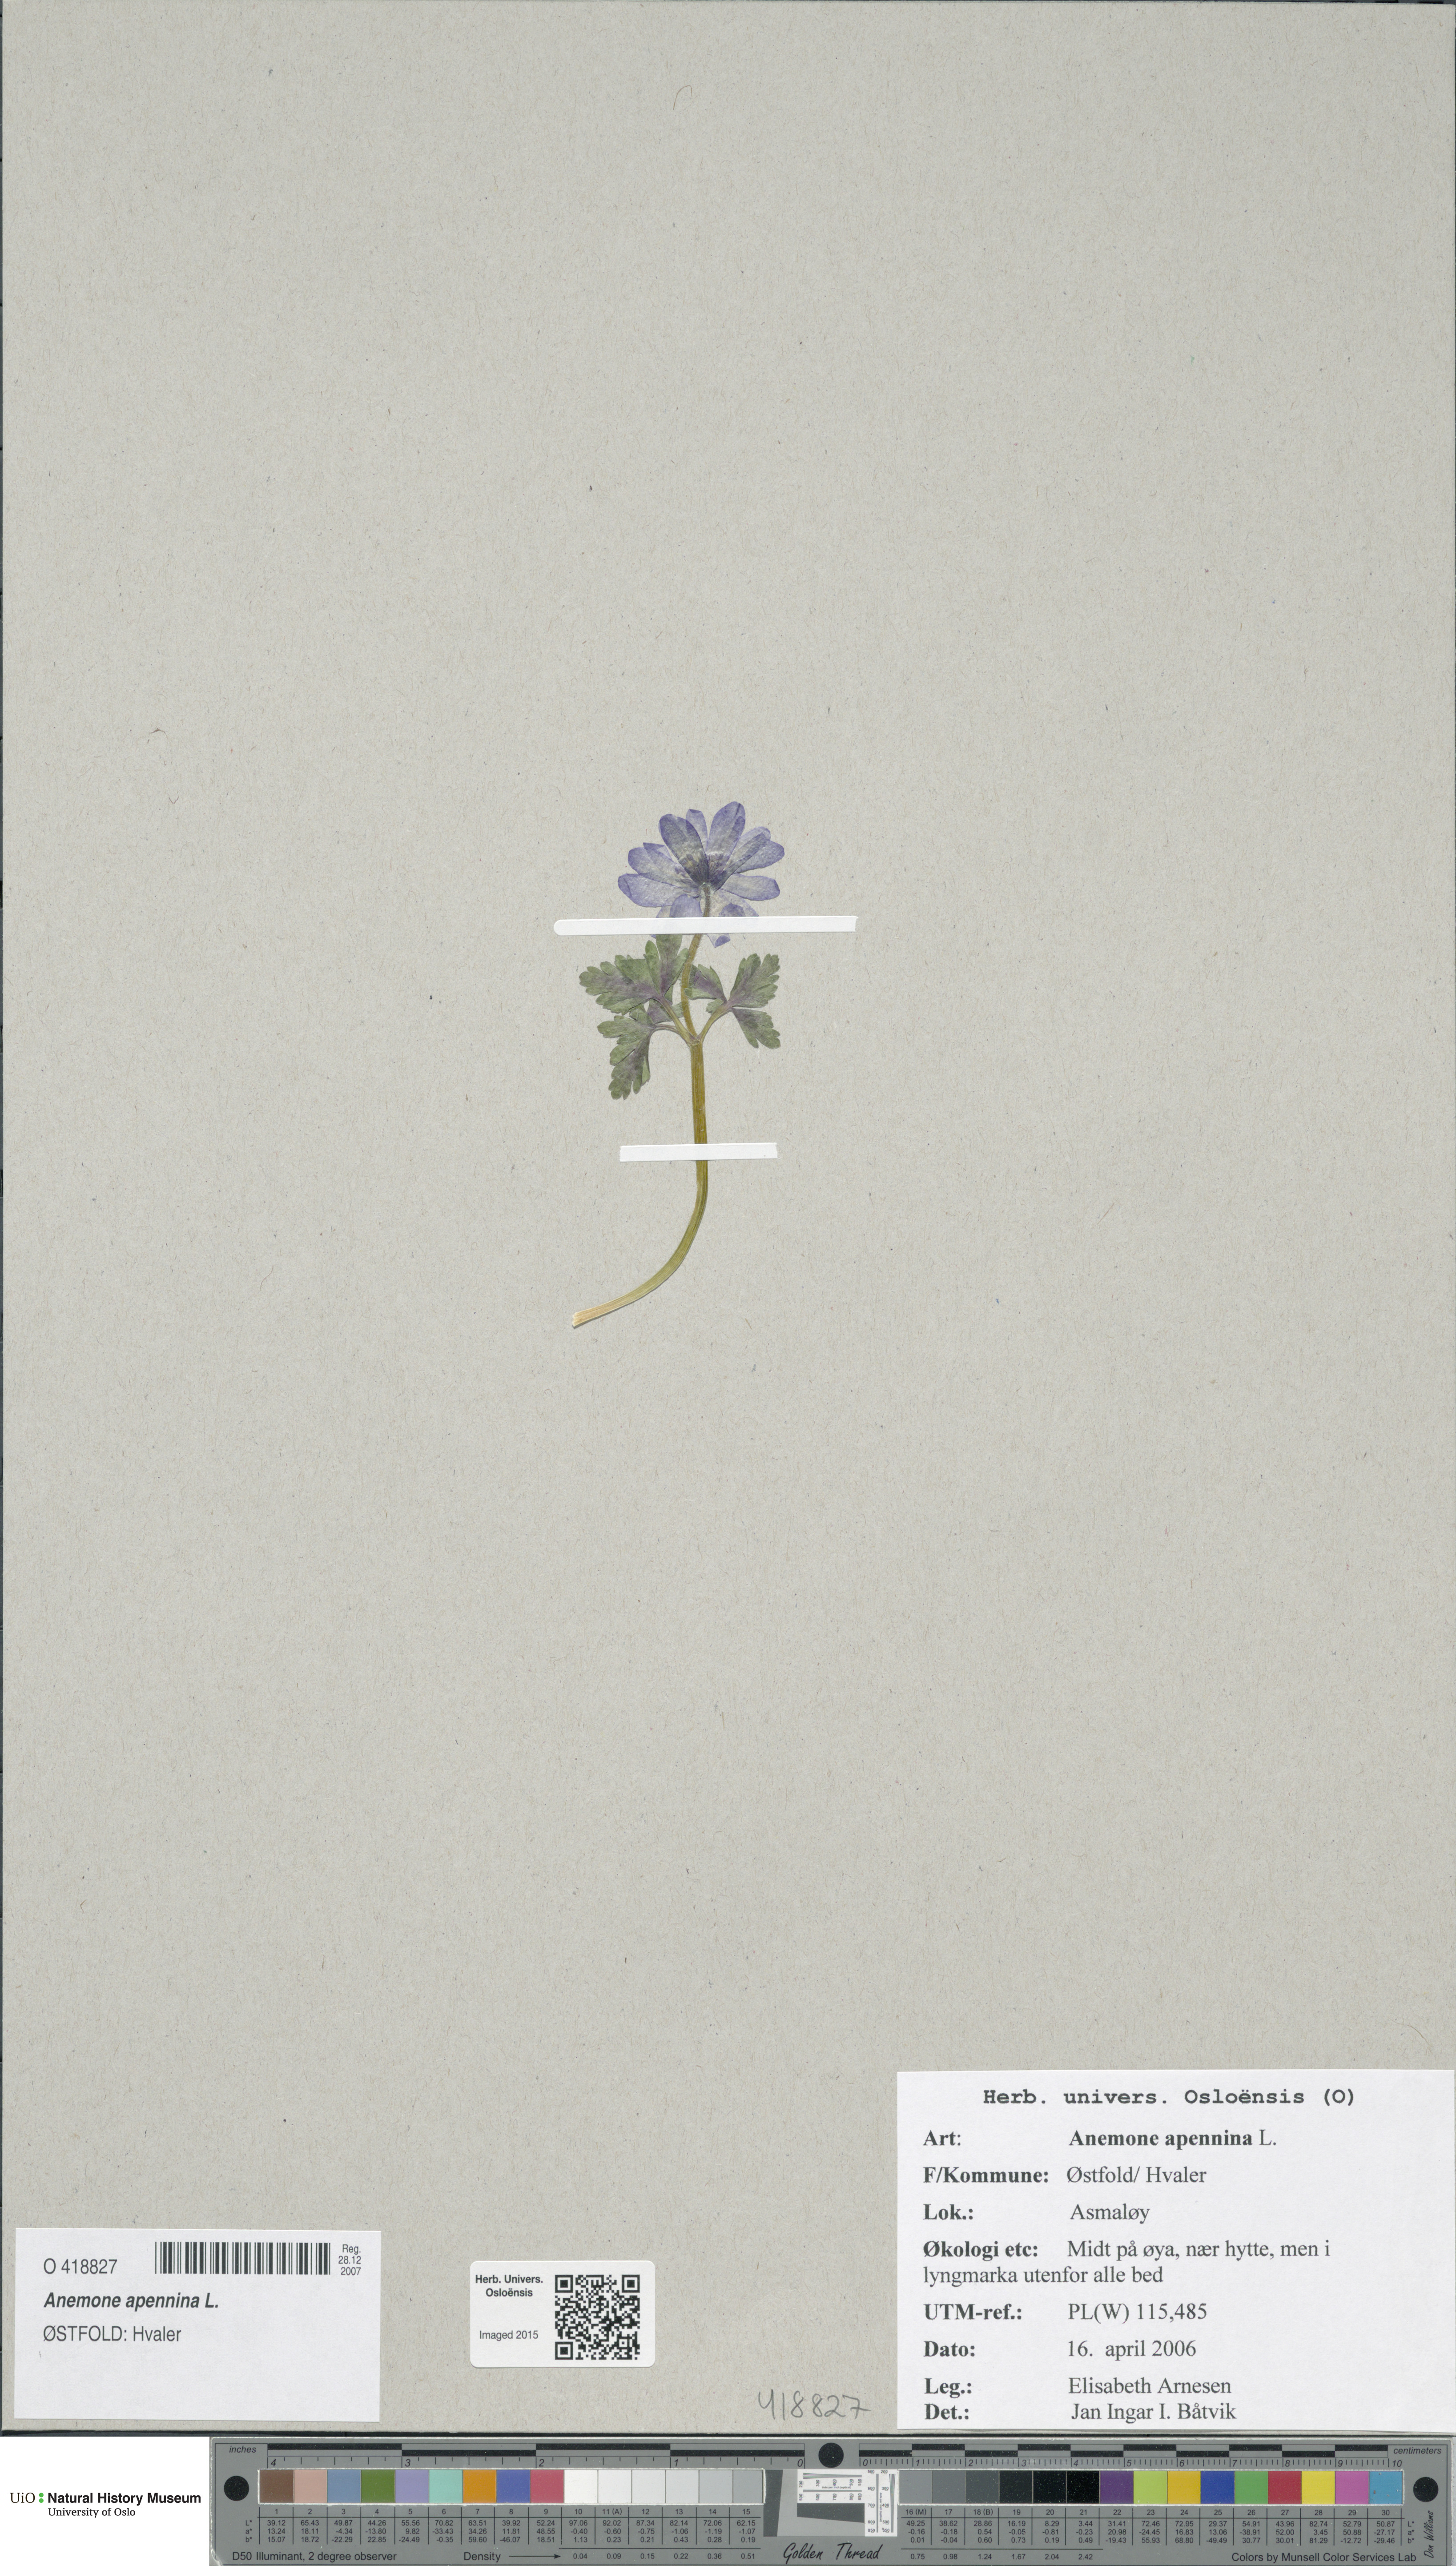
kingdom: Plantae
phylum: Tracheophyta
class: Magnoliopsida
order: Ranunculales
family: Ranunculaceae
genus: Anemone
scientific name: Anemone blanda
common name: Balkan anemone
